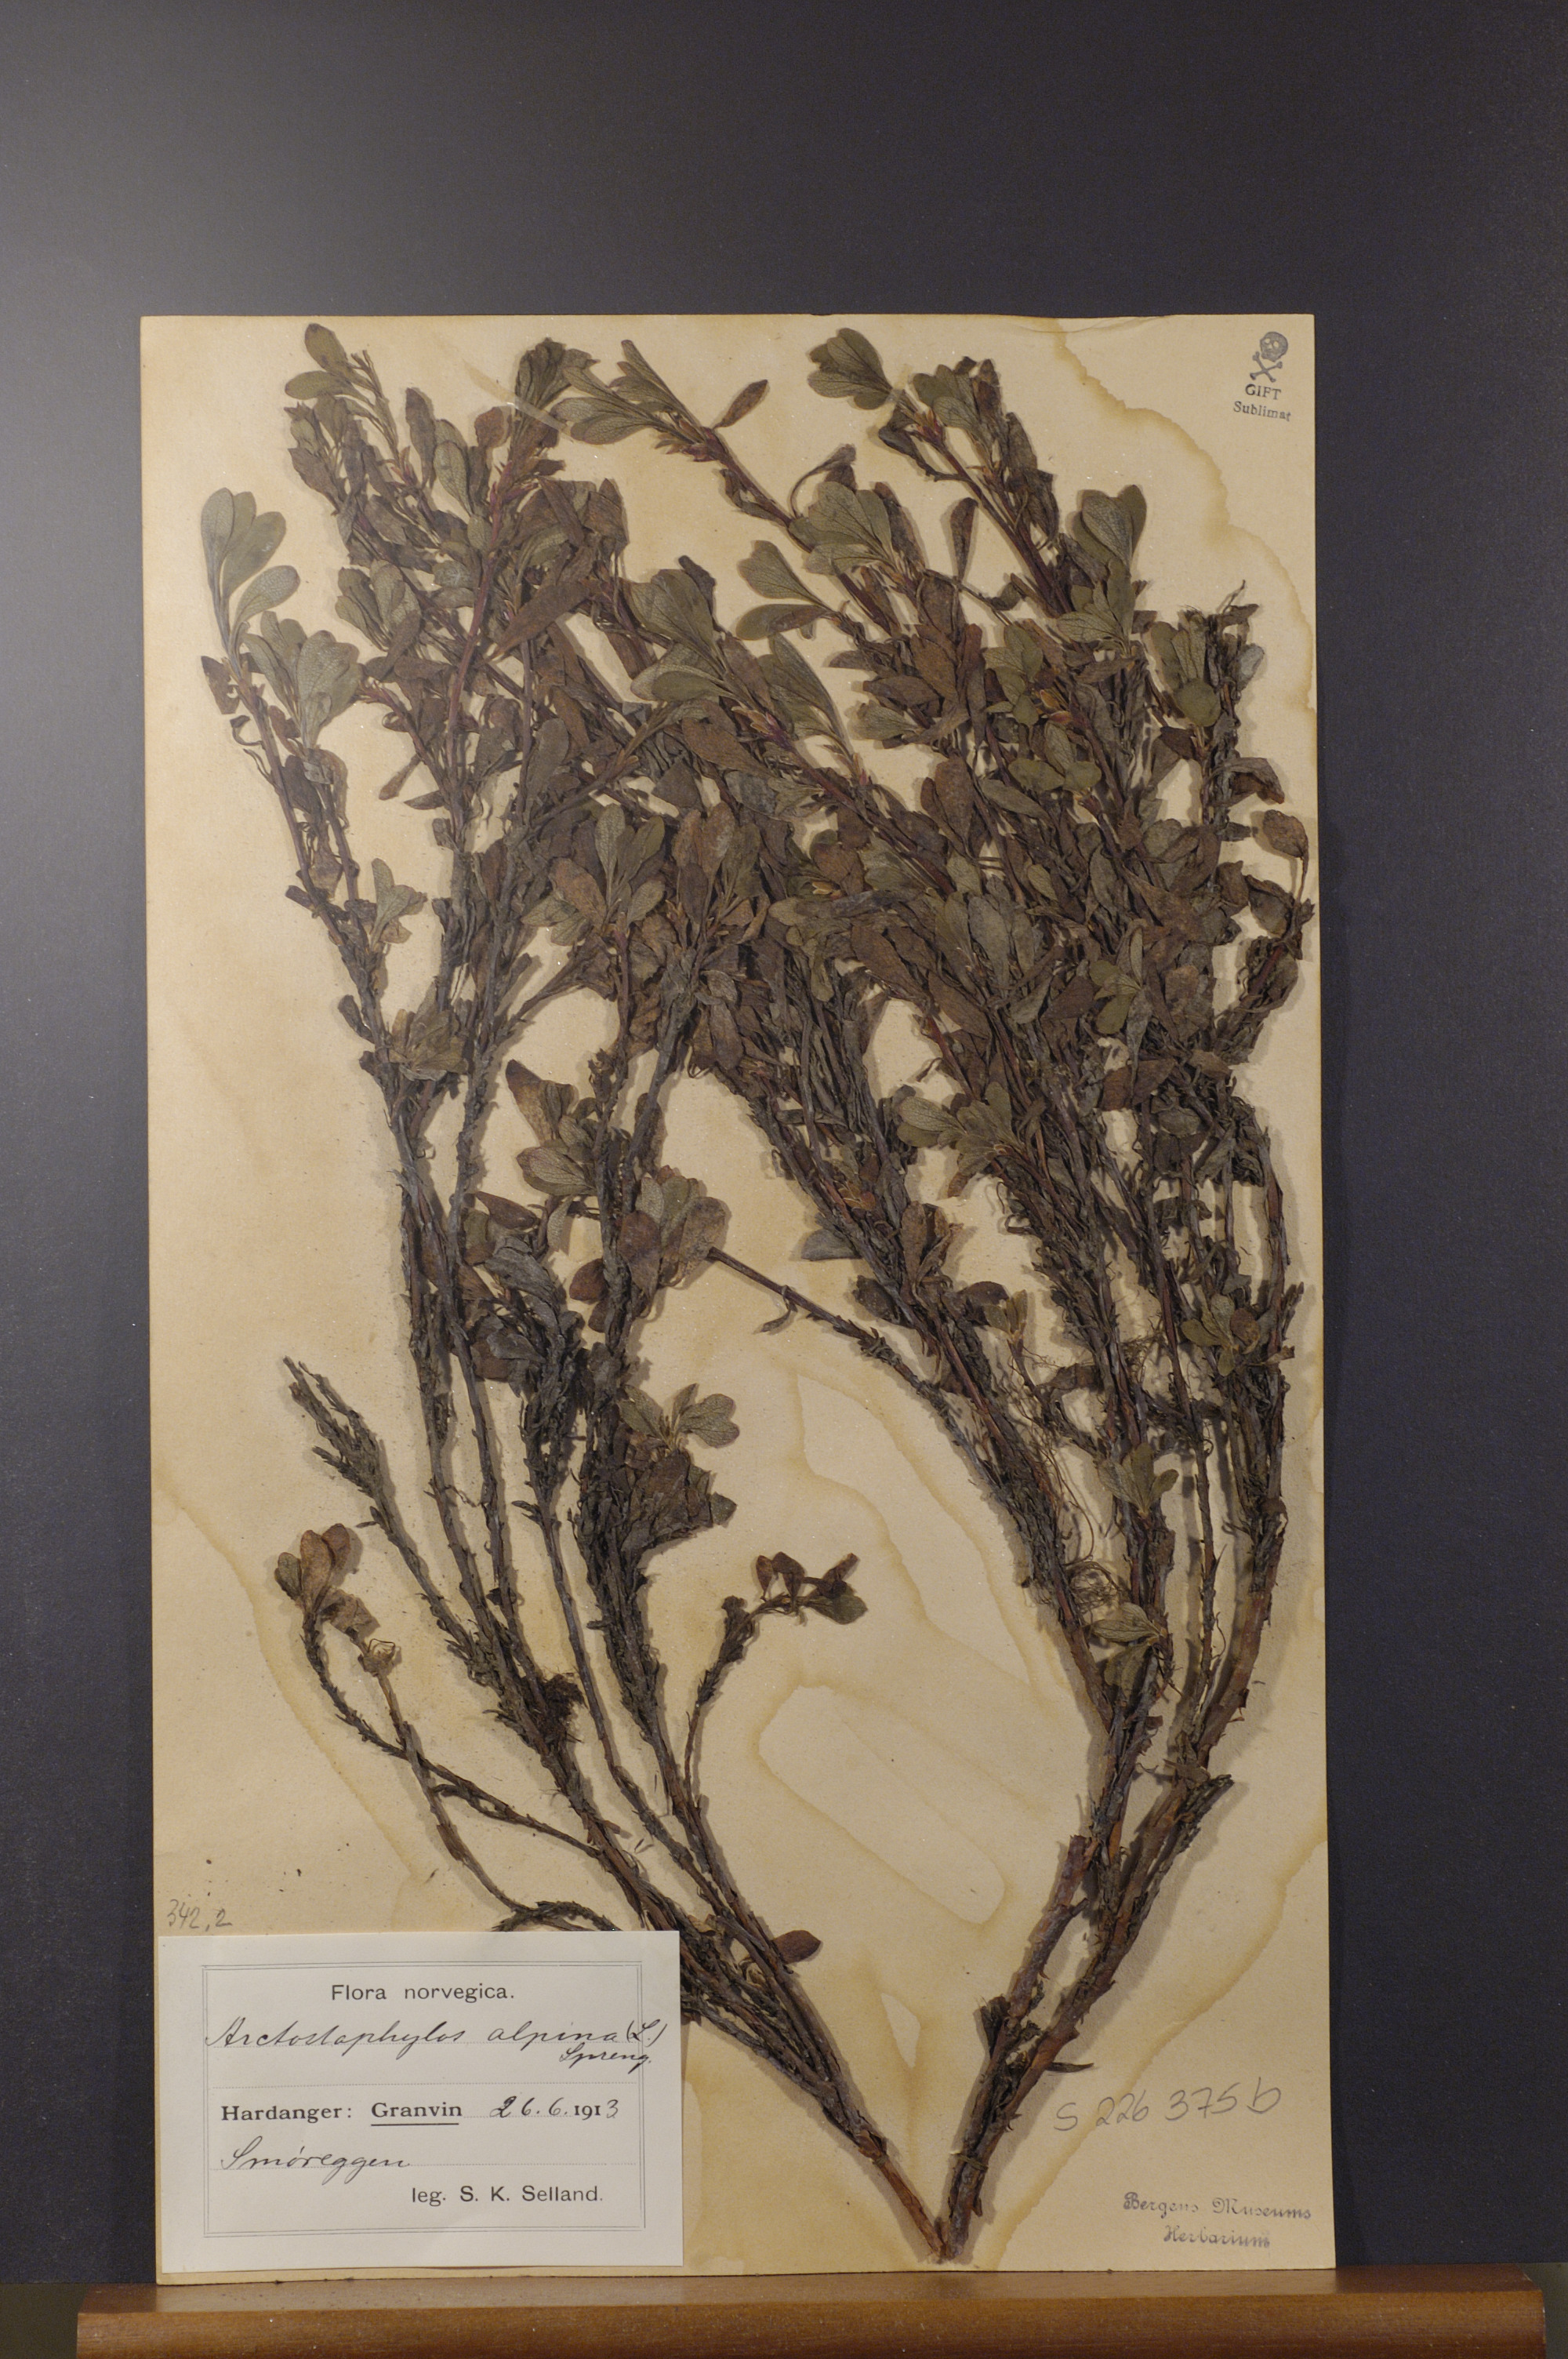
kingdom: Plantae
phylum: Tracheophyta
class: Magnoliopsida
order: Ericales
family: Ericaceae
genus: Arctostaphylos
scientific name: Arctostaphylos alpinus
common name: Alpine bearberry
